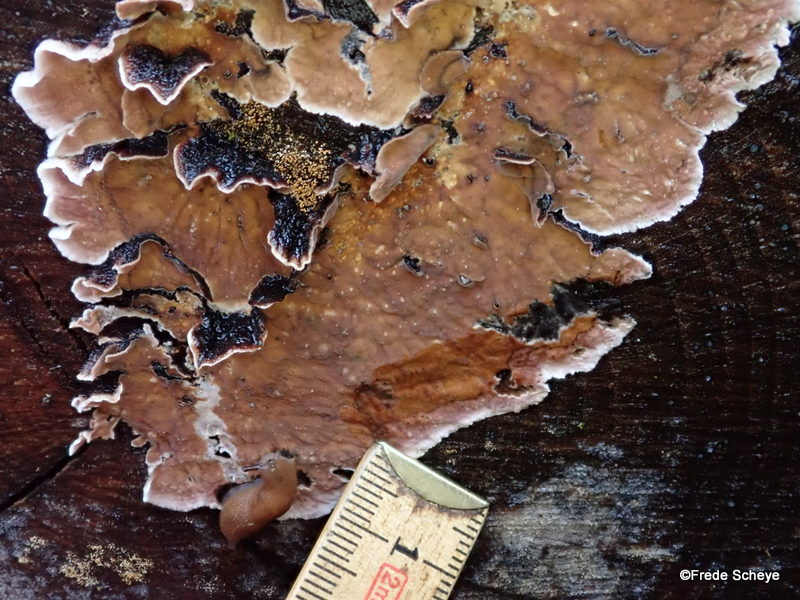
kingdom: Fungi
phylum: Basidiomycota
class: Agaricomycetes
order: Agaricales
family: Cyphellaceae
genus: Chondrostereum
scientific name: Chondrostereum purpureum
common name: purpurlædersvamp
